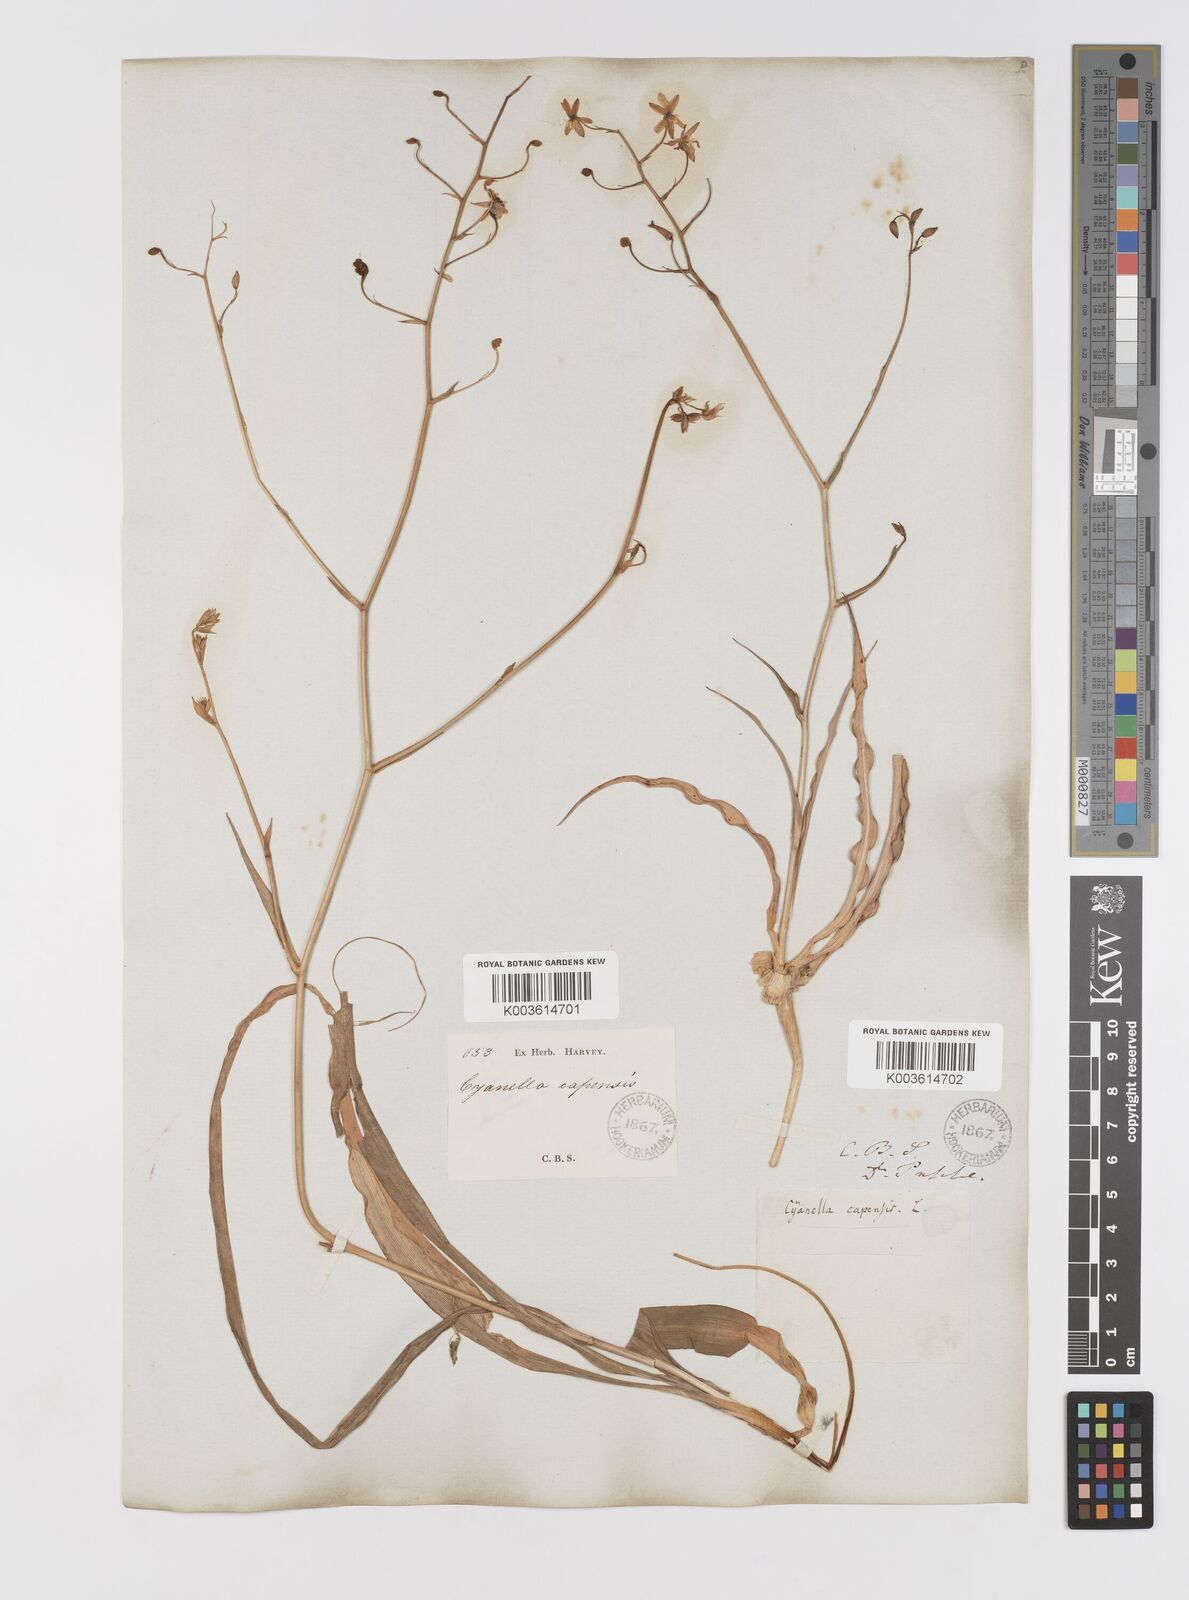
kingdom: Plantae
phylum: Tracheophyta
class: Liliopsida
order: Asparagales
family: Tecophilaeaceae
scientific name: Tecophilaeaceae
